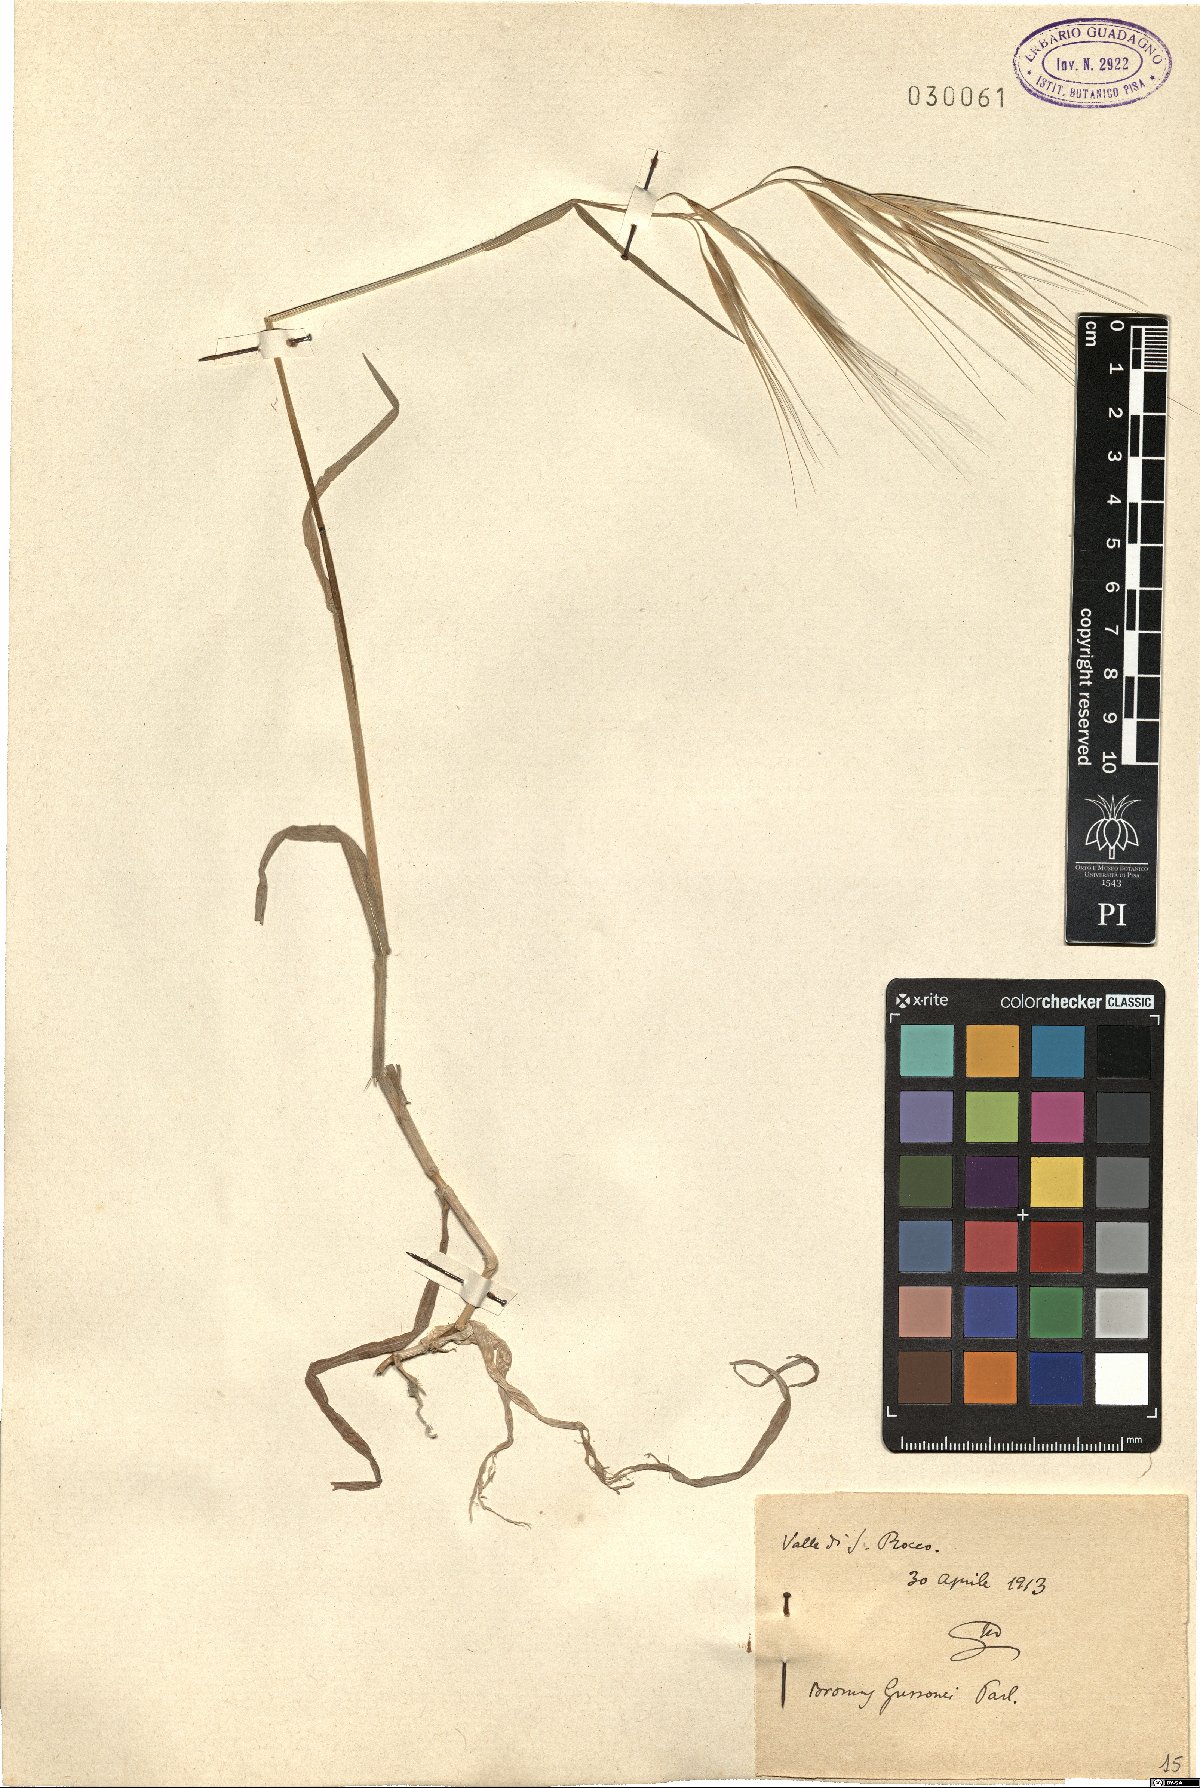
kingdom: Plantae
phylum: Tracheophyta
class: Liliopsida
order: Poales
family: Poaceae
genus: Bromus
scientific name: Bromus diandrus
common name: Ripgut brome
